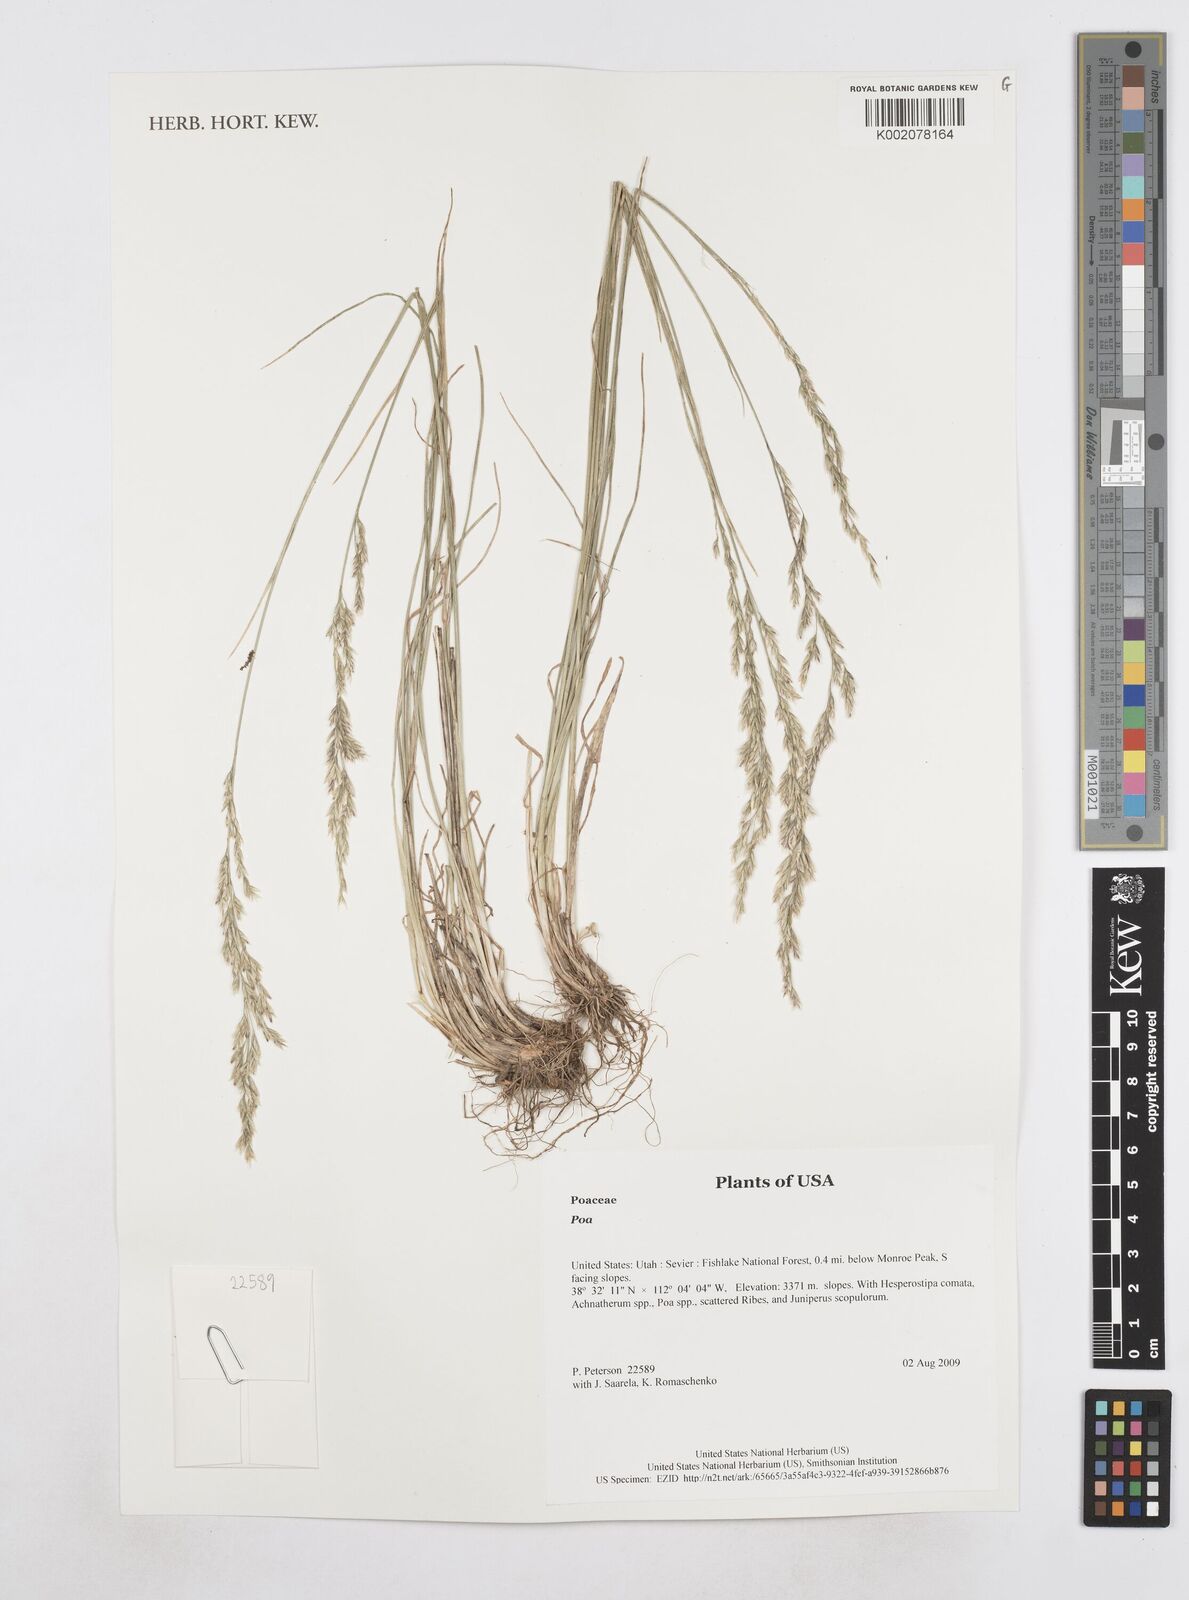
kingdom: Plantae
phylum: Tracheophyta
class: Liliopsida
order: Poales
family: Poaceae
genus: Poa
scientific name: Poa
